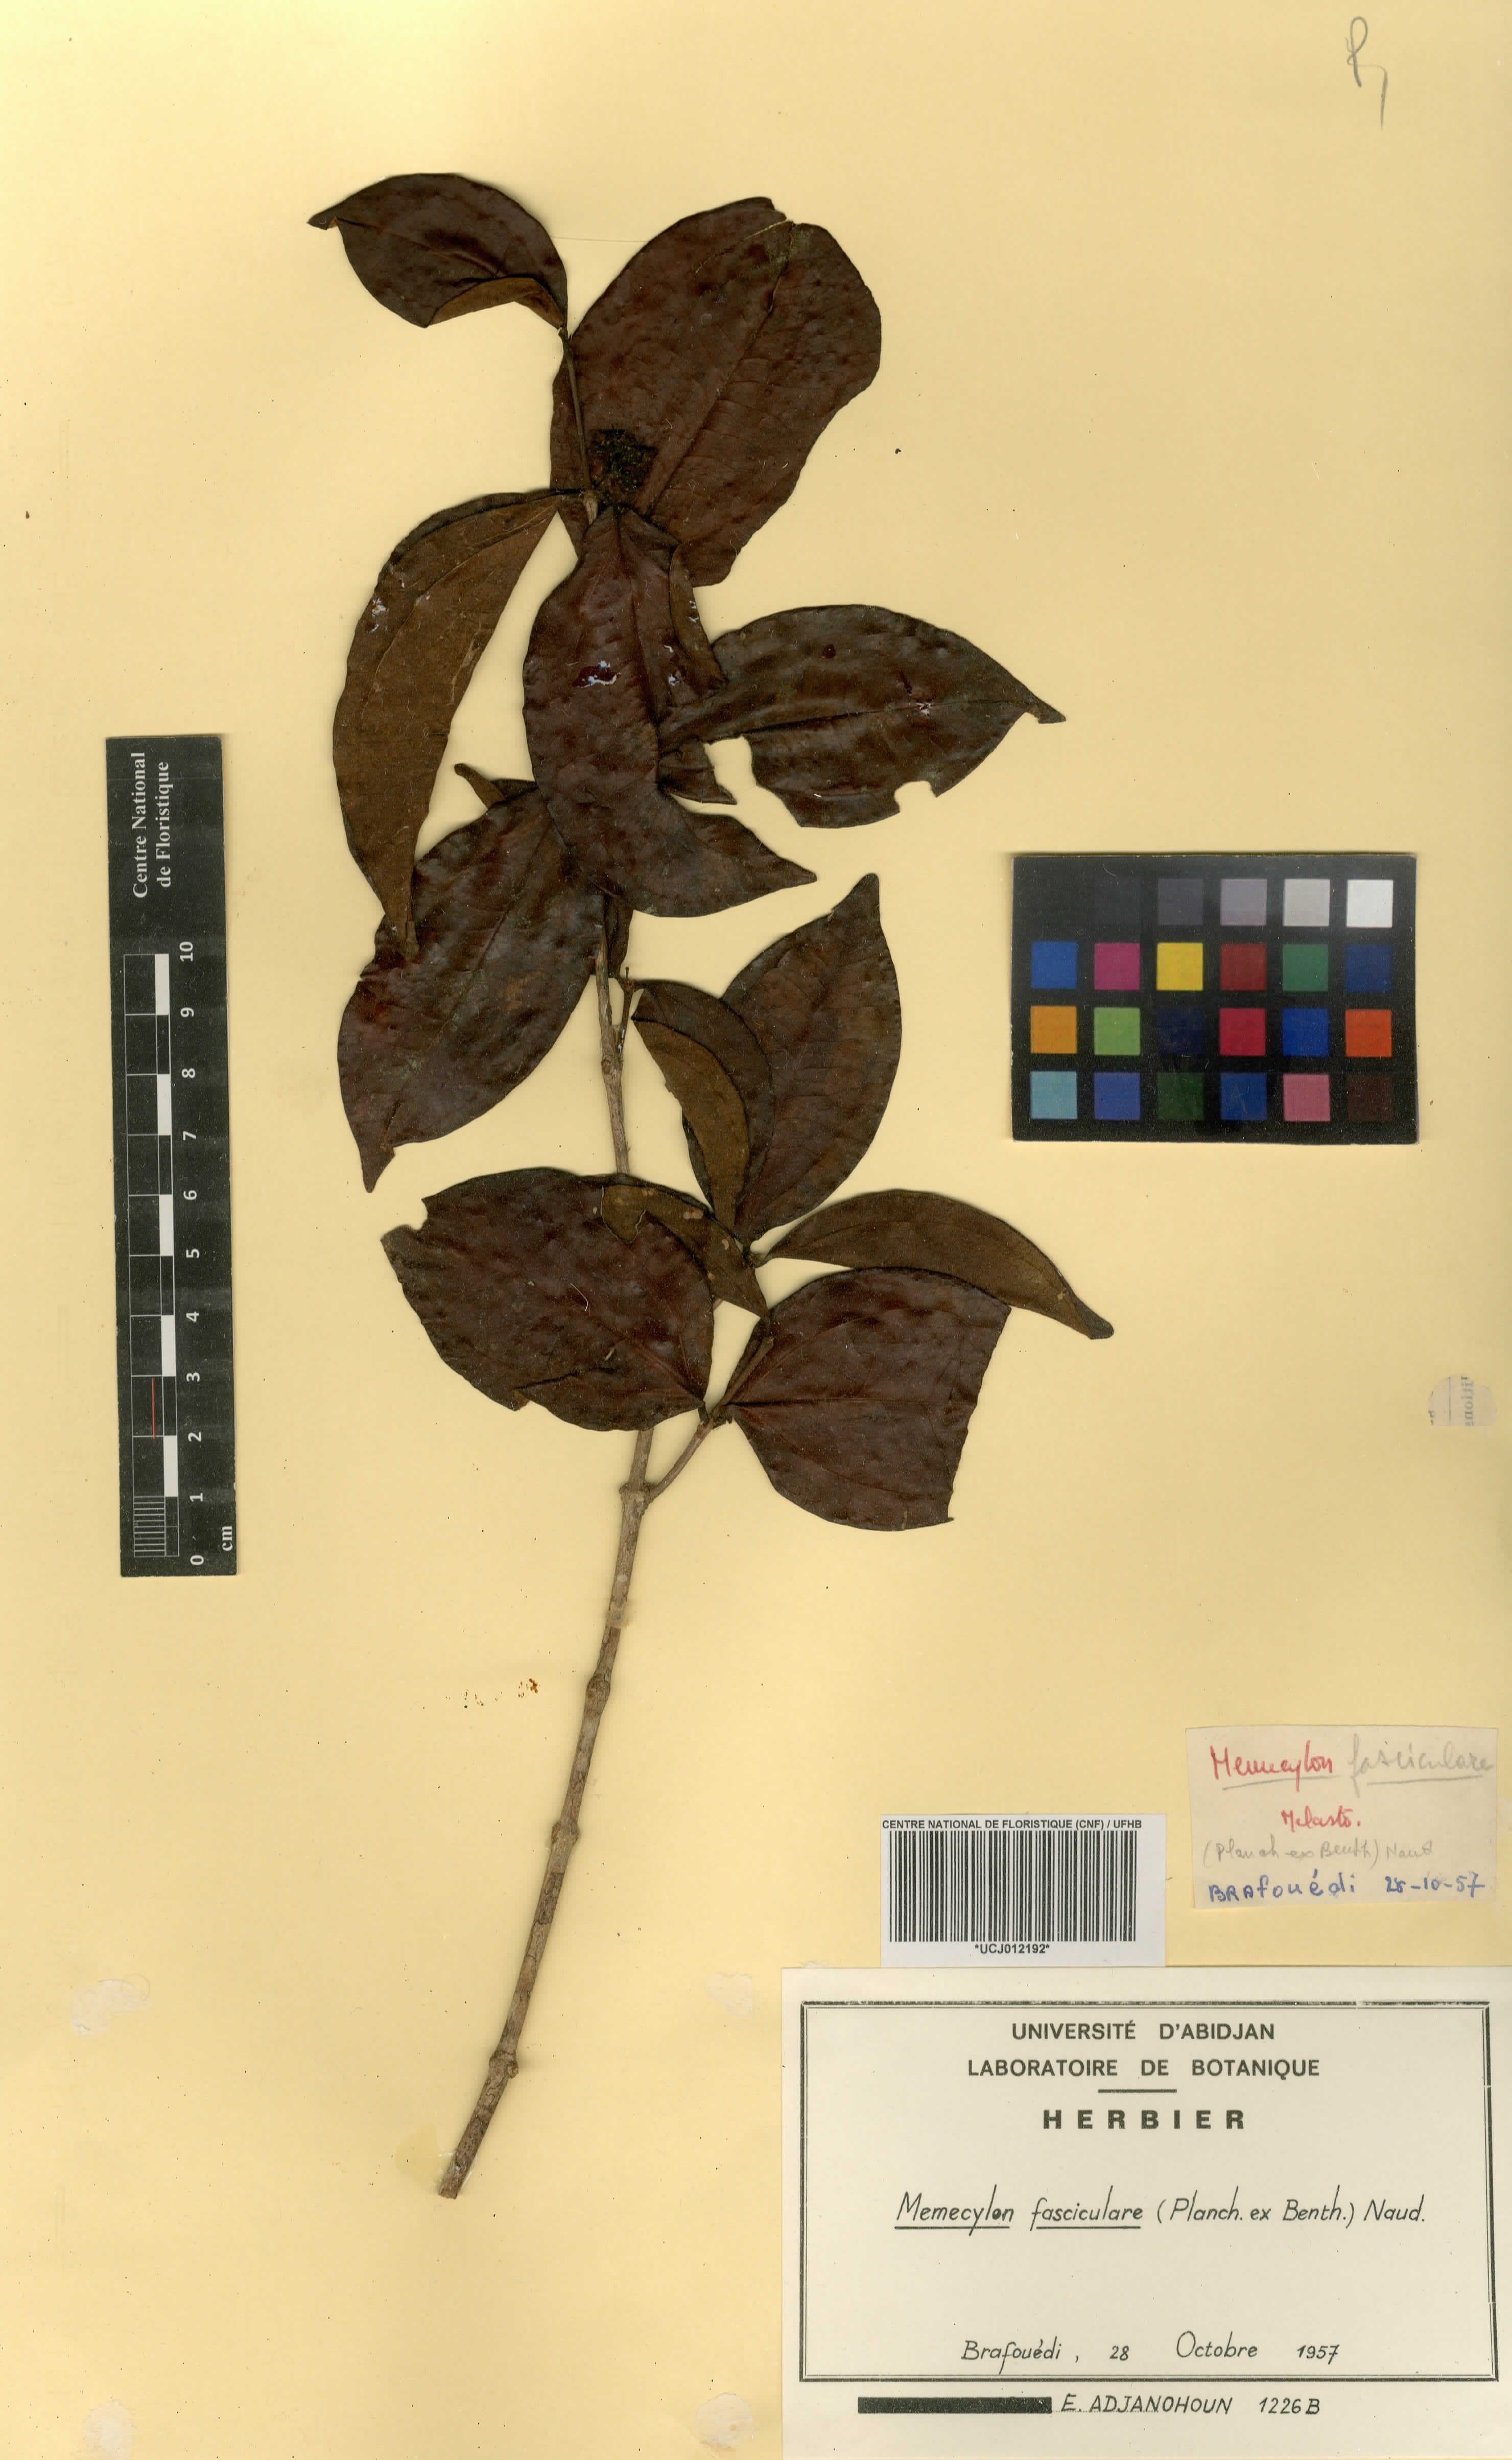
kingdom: Plantae
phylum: Tracheophyta
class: Magnoliopsida
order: Myrtales
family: Melastomataceae
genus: Warneckea
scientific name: Warneckea fascicularis
